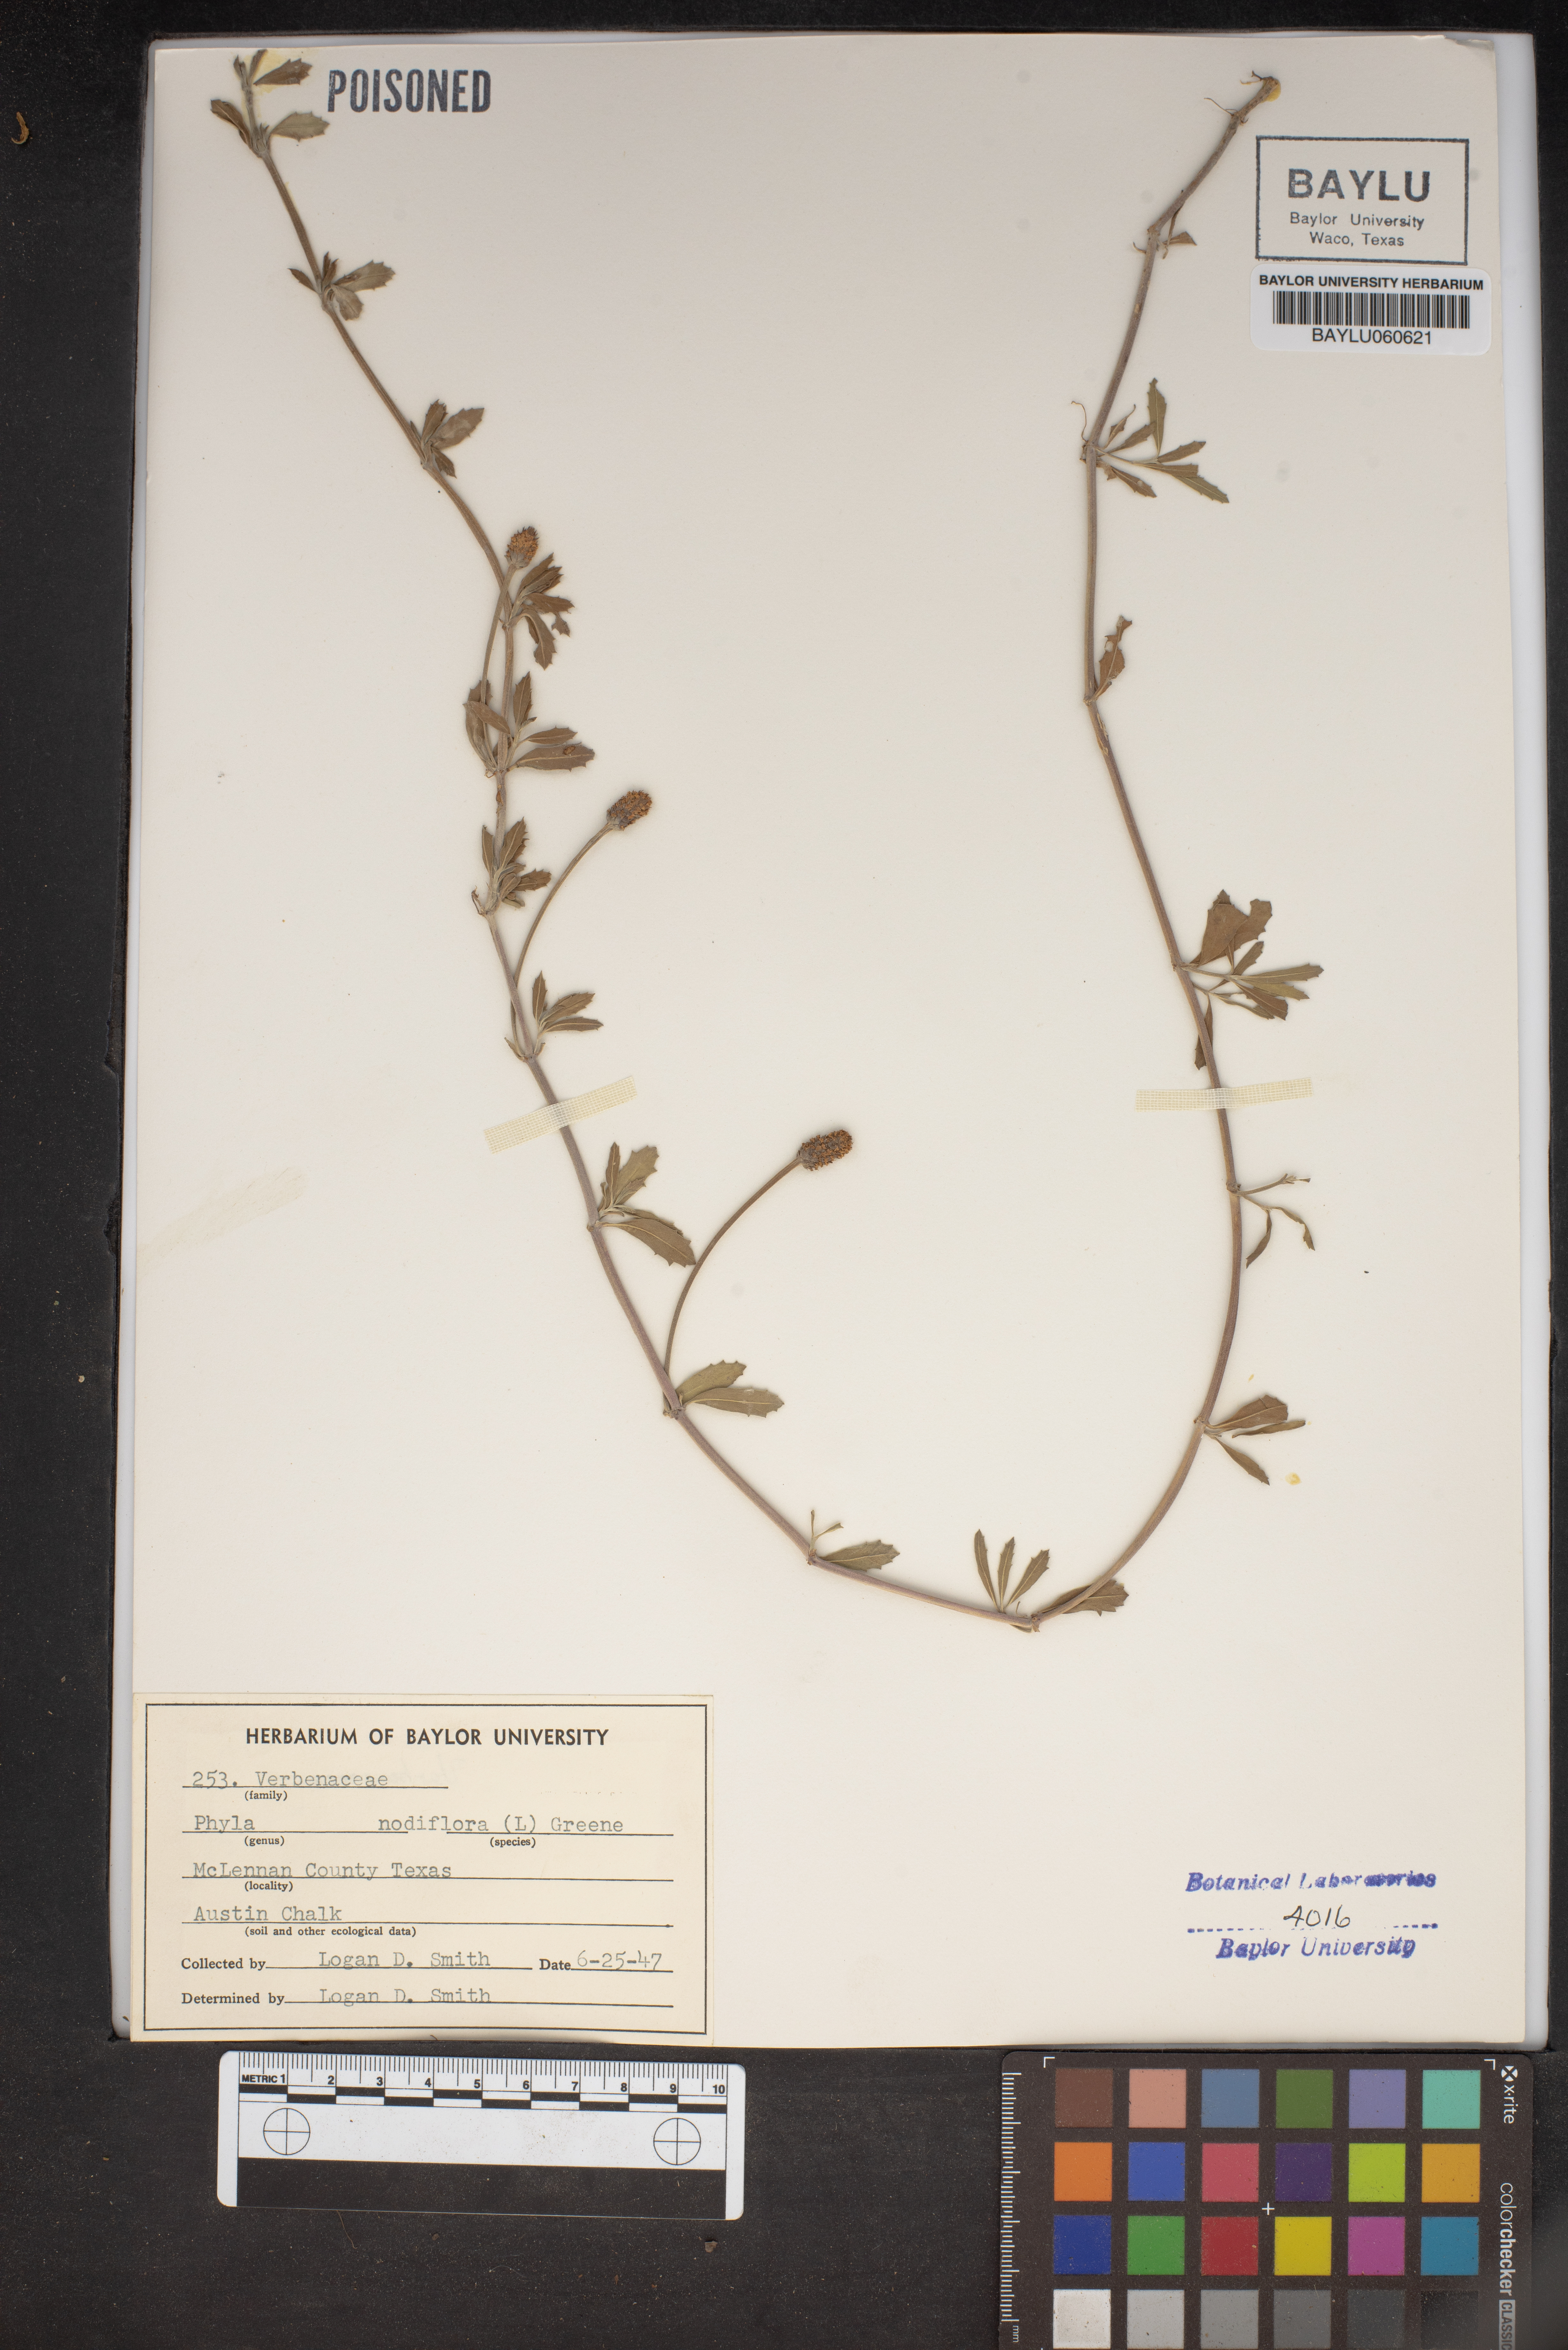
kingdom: Plantae
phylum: Tracheophyta
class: Magnoliopsida
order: Lamiales
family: Verbenaceae
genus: Phyla
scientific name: Phyla nodiflora
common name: Frogfruit
